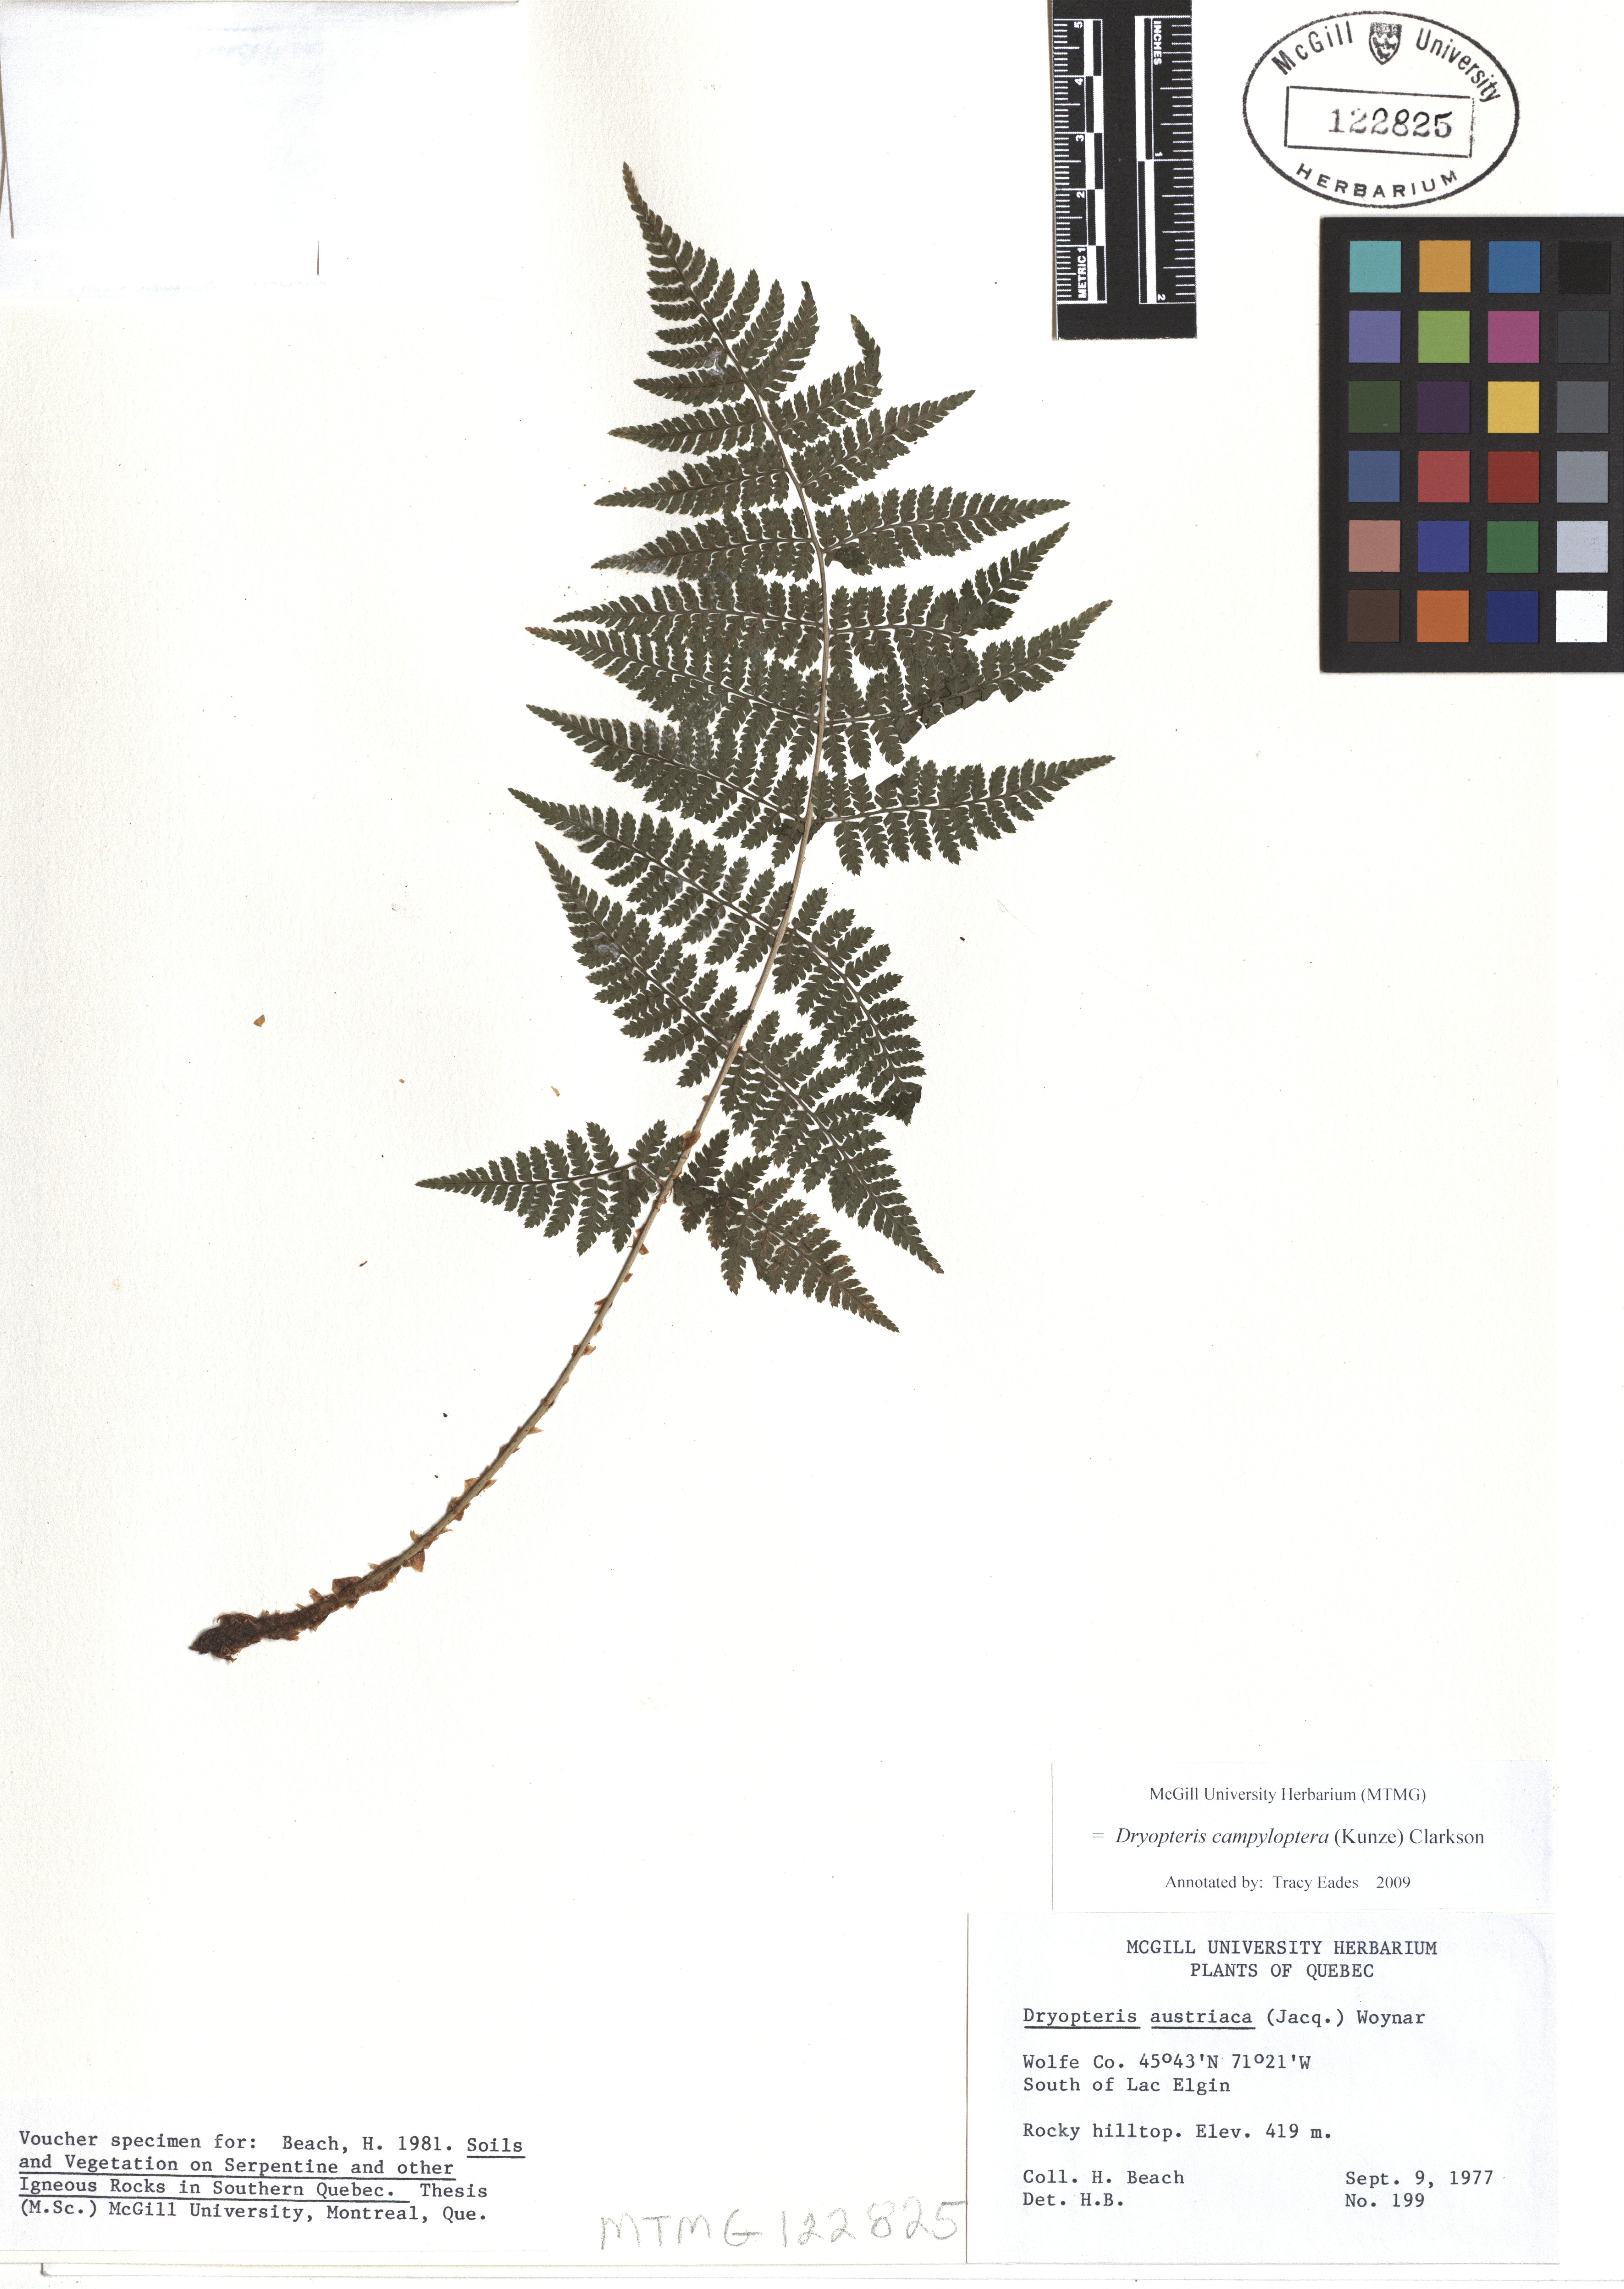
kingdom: Plantae
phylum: Tracheophyta
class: Polypodiopsida
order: Polypodiales
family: Dryopteridaceae
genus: Dryopteris
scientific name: Dryopteris campyloptera
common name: Mountain wood fern
